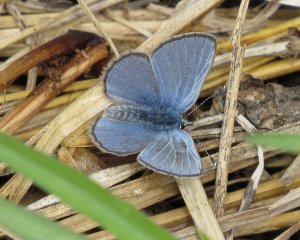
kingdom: Animalia
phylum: Arthropoda
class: Insecta
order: Lepidoptera
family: Lycaenidae
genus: Glaucopsyche
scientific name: Glaucopsyche lygdamus
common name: Silvery Blue
